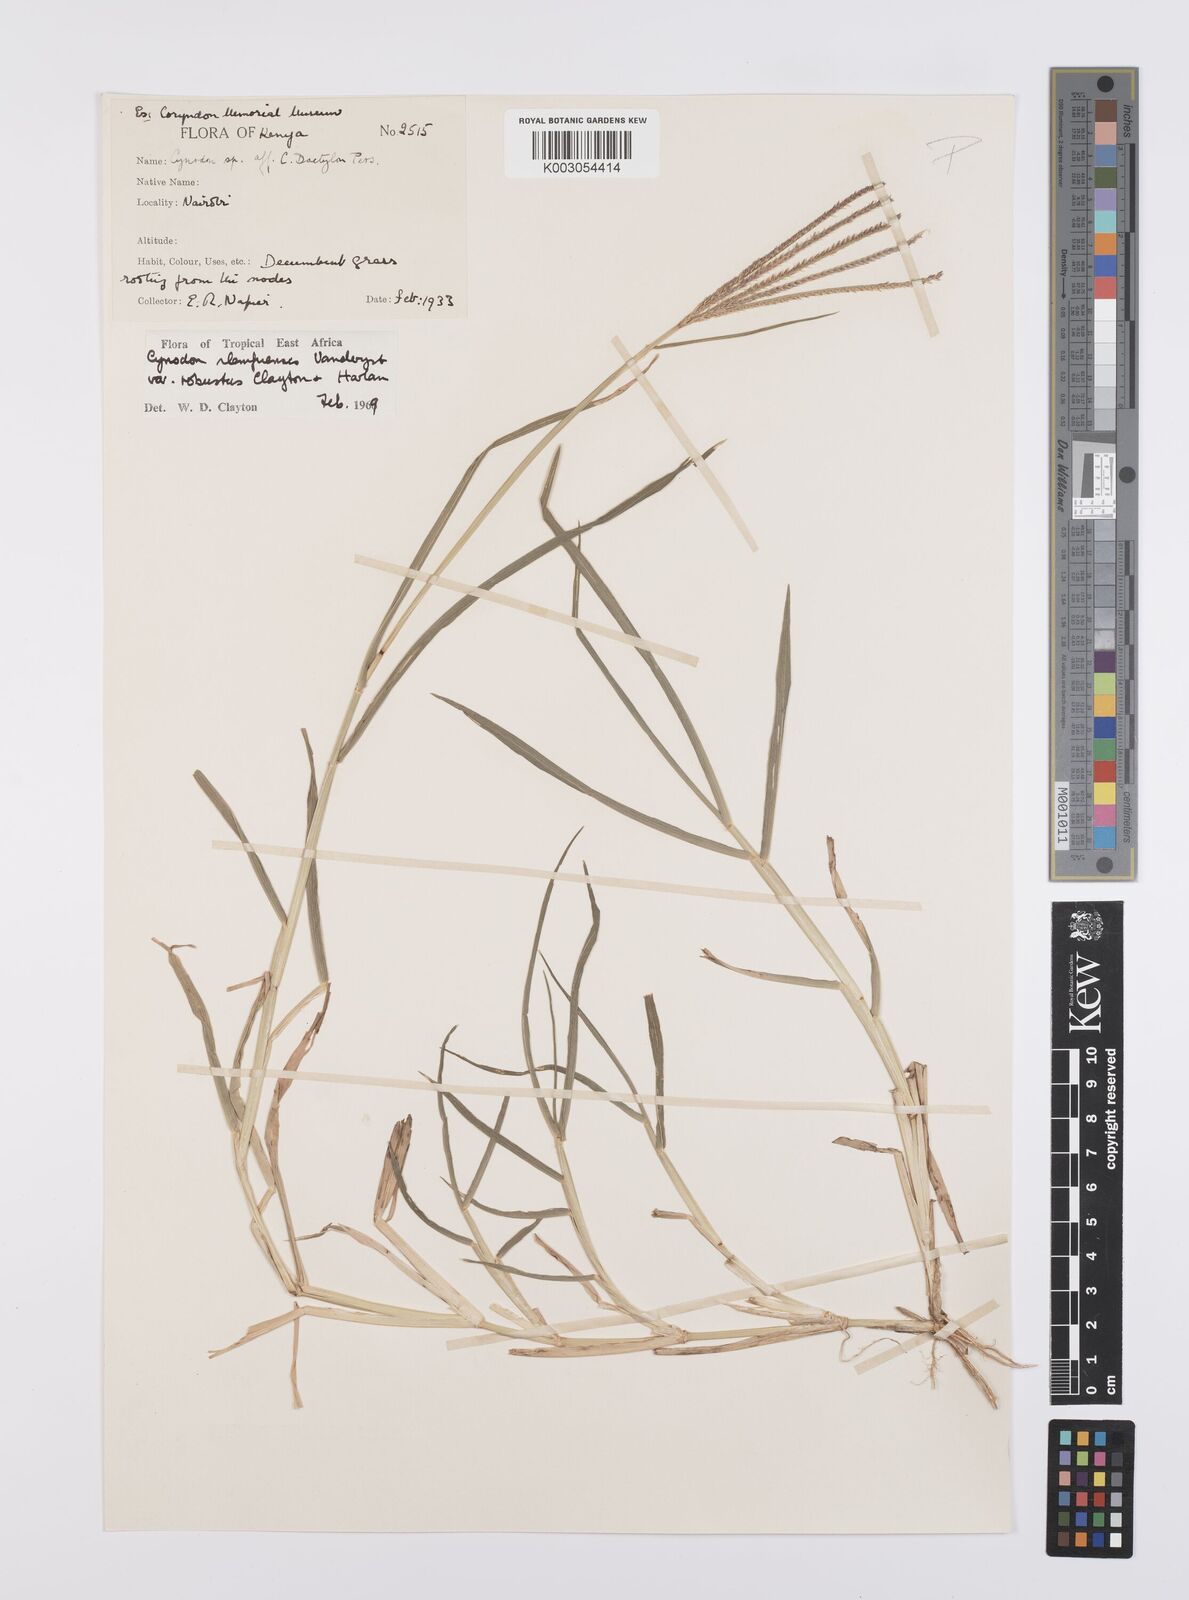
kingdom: Plantae
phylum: Tracheophyta
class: Liliopsida
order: Poales
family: Poaceae
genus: Cynodon
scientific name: Cynodon nlemfuensis
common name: African bermudagrass
